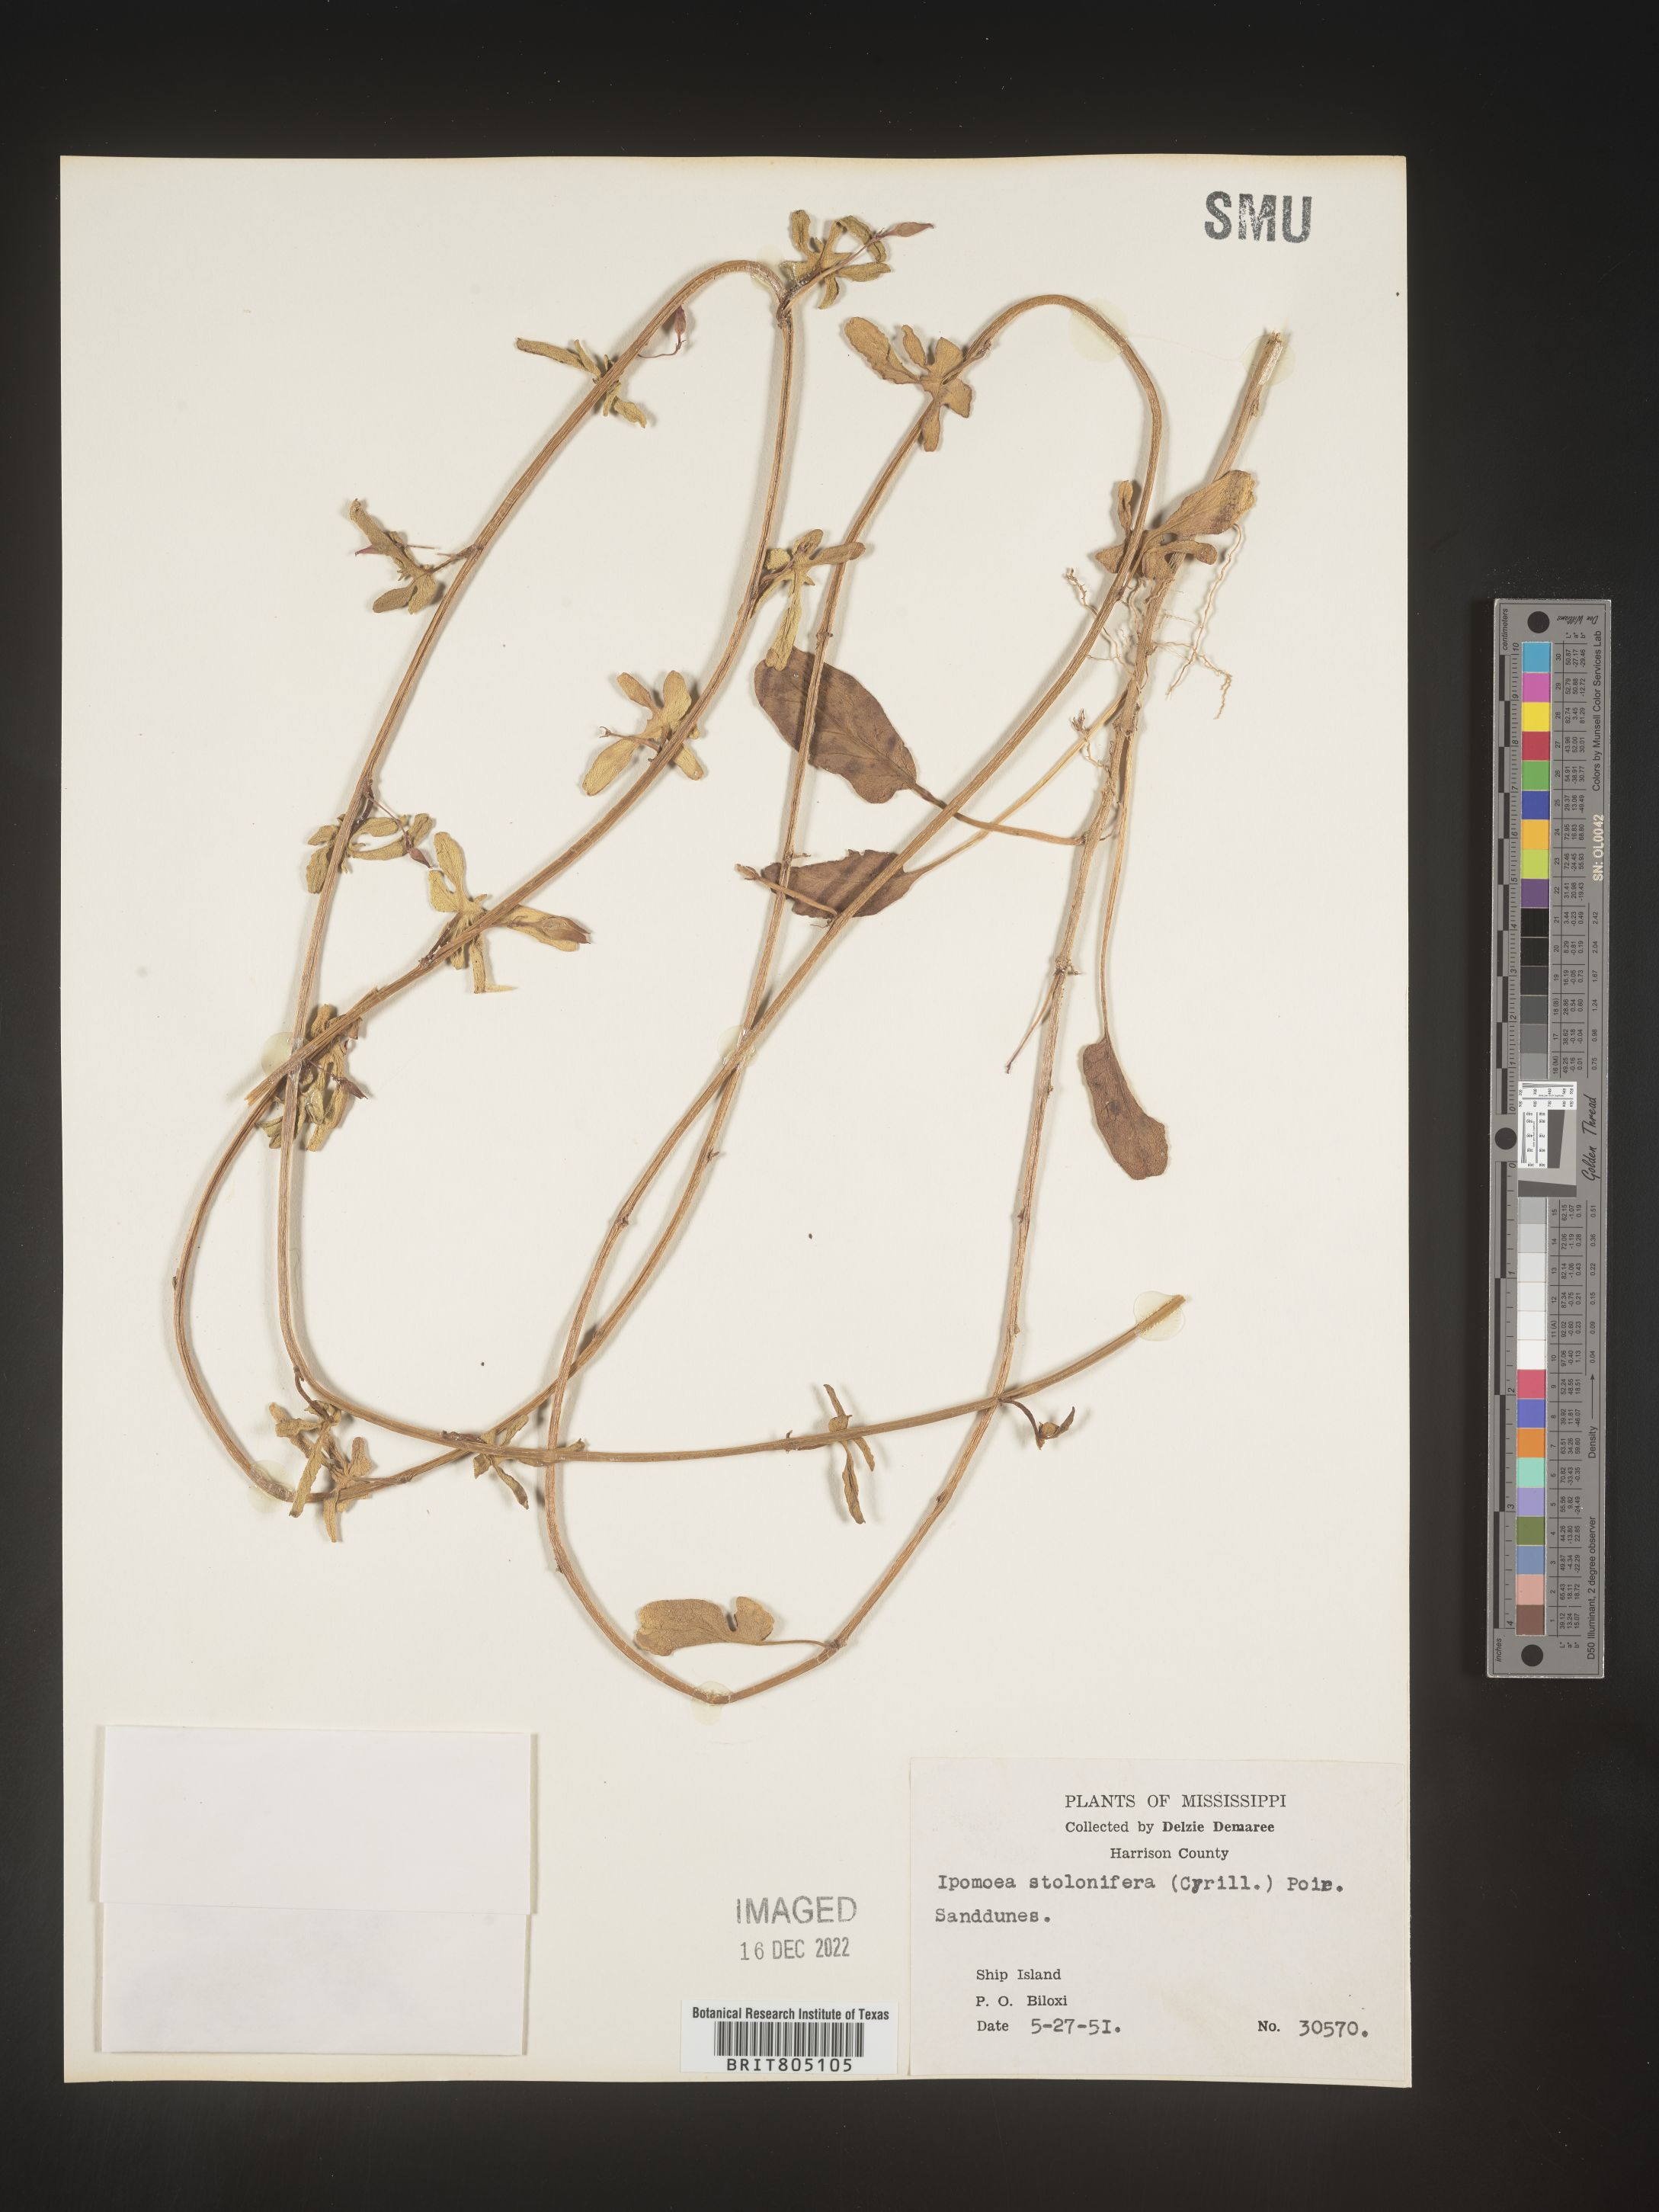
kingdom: Plantae
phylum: Tracheophyta
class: Magnoliopsida
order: Solanales
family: Convolvulaceae
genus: Ipomoea
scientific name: Ipomoea imperati
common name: Fiddle-leaf morning-glory
